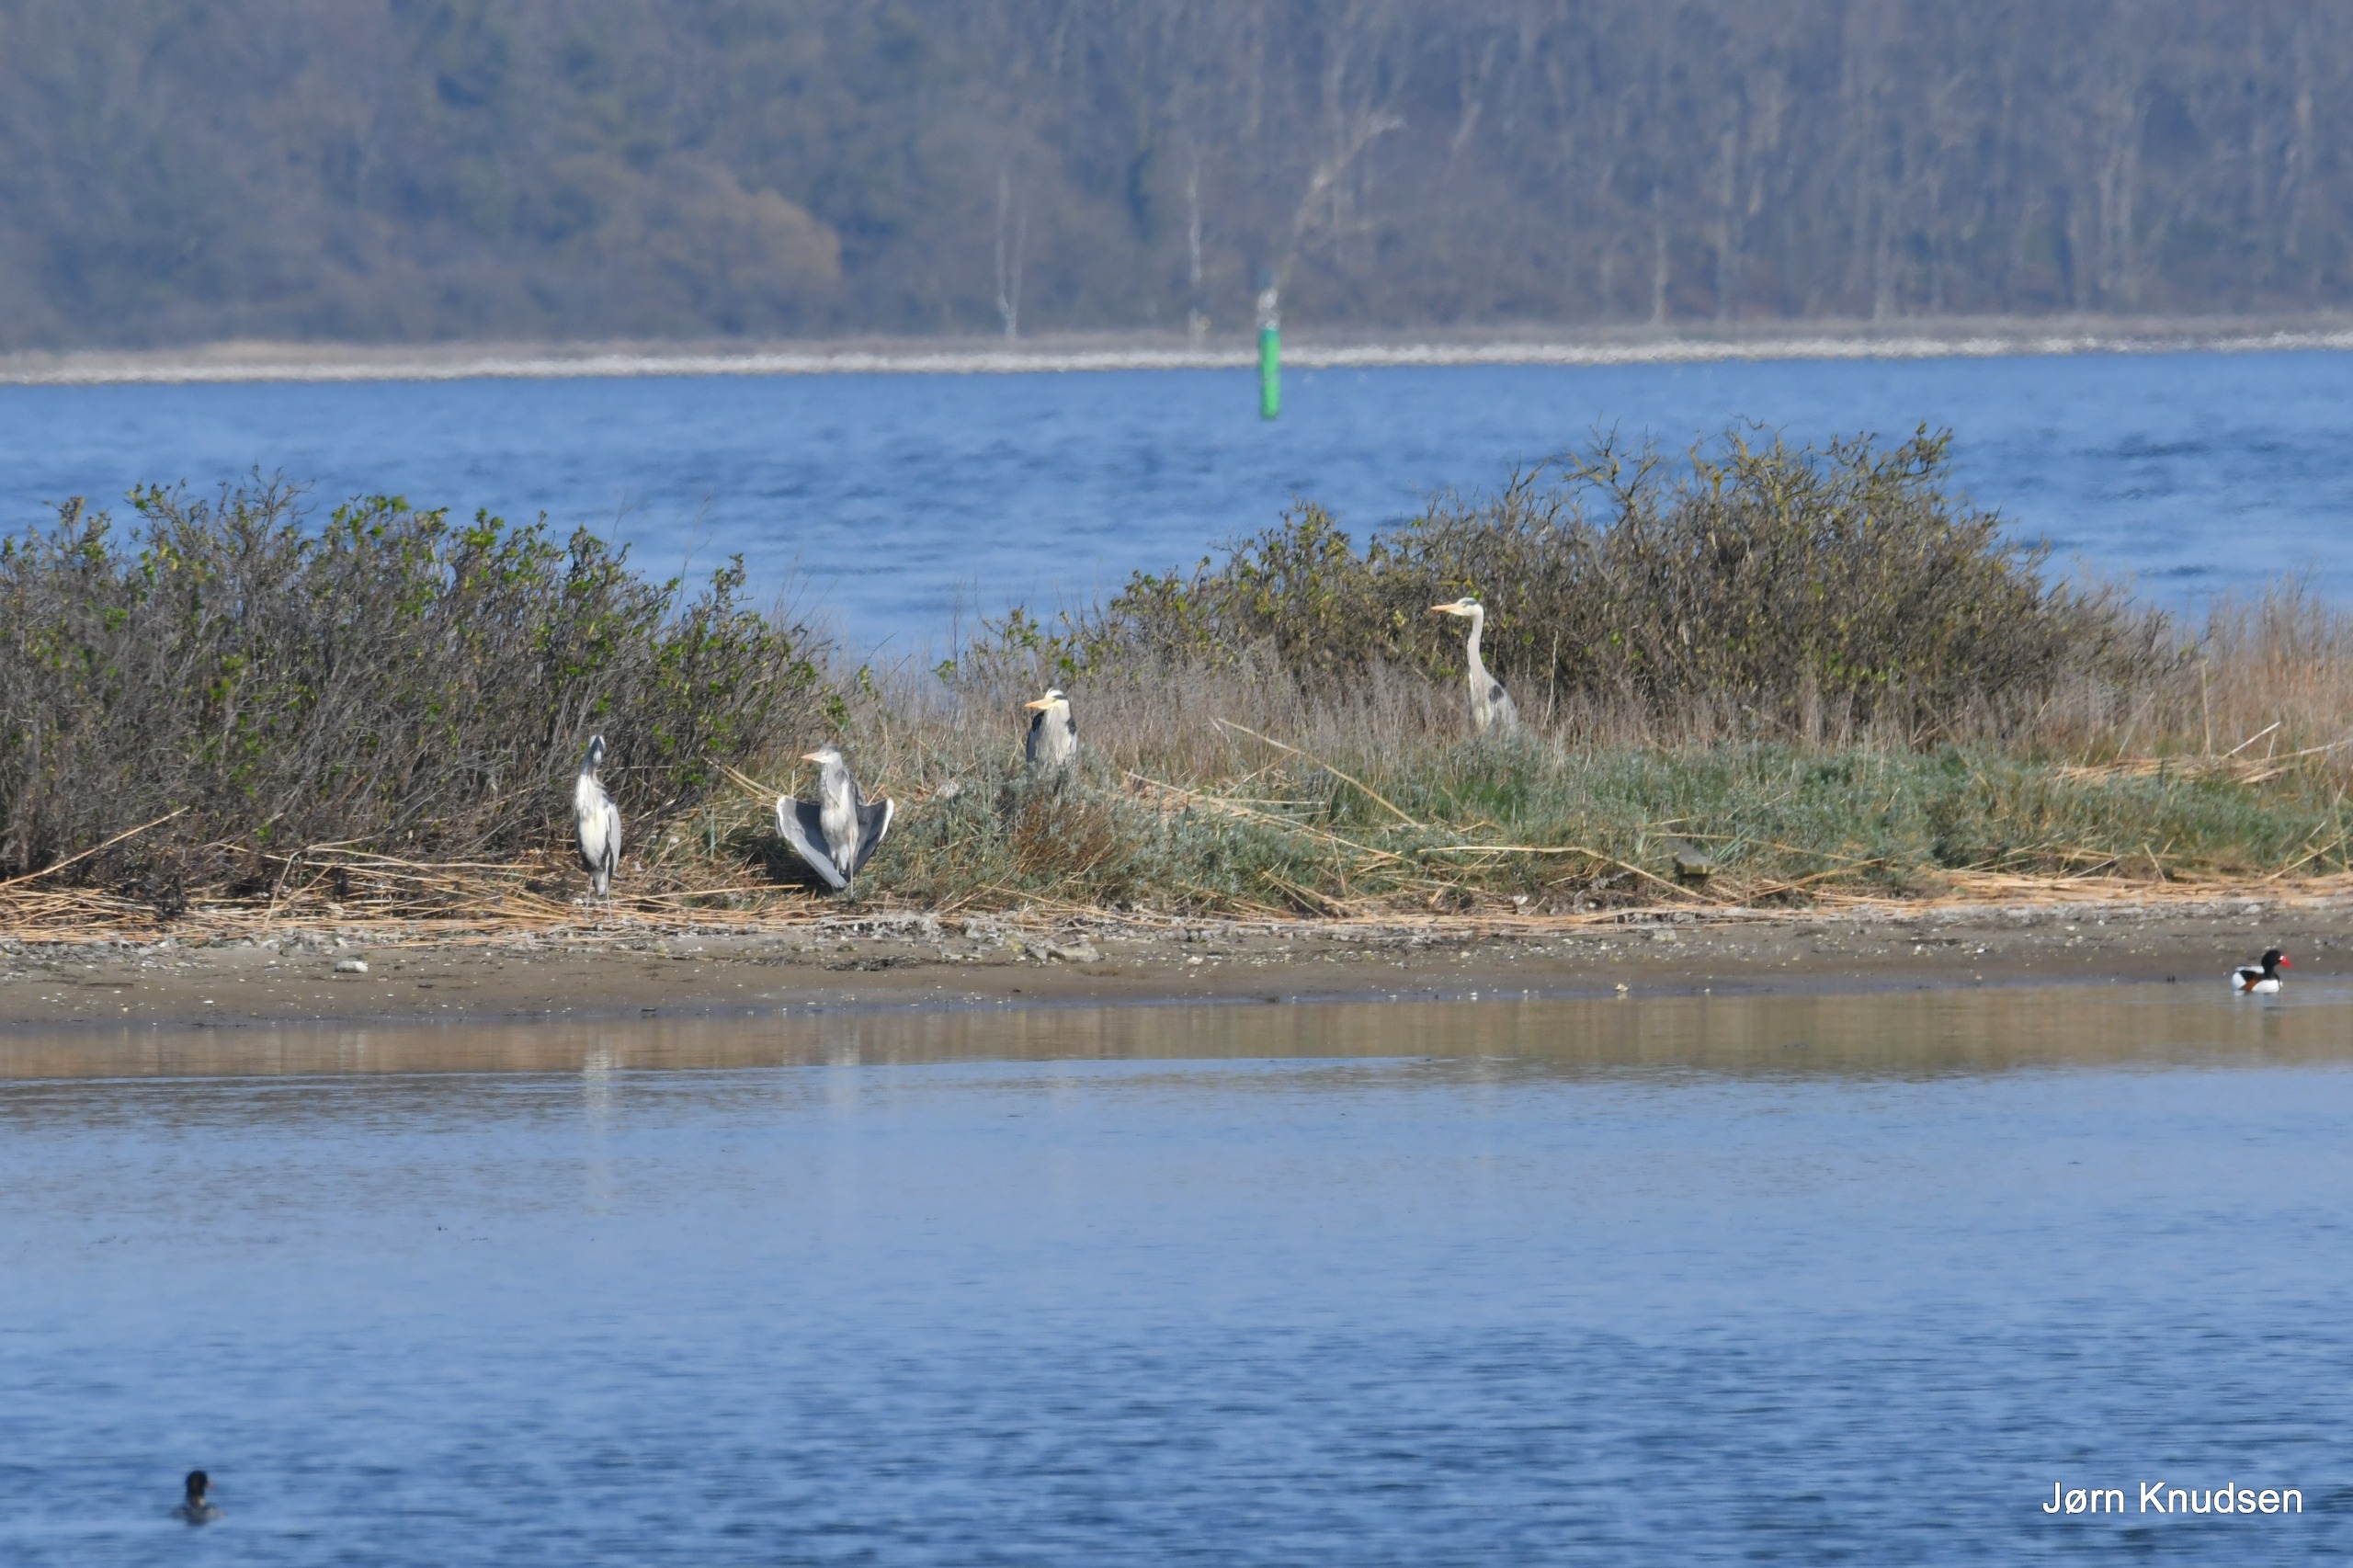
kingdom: Animalia
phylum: Chordata
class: Aves
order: Pelecaniformes
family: Ardeidae
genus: Ardea
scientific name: Ardea cinerea
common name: Fiskehejre
